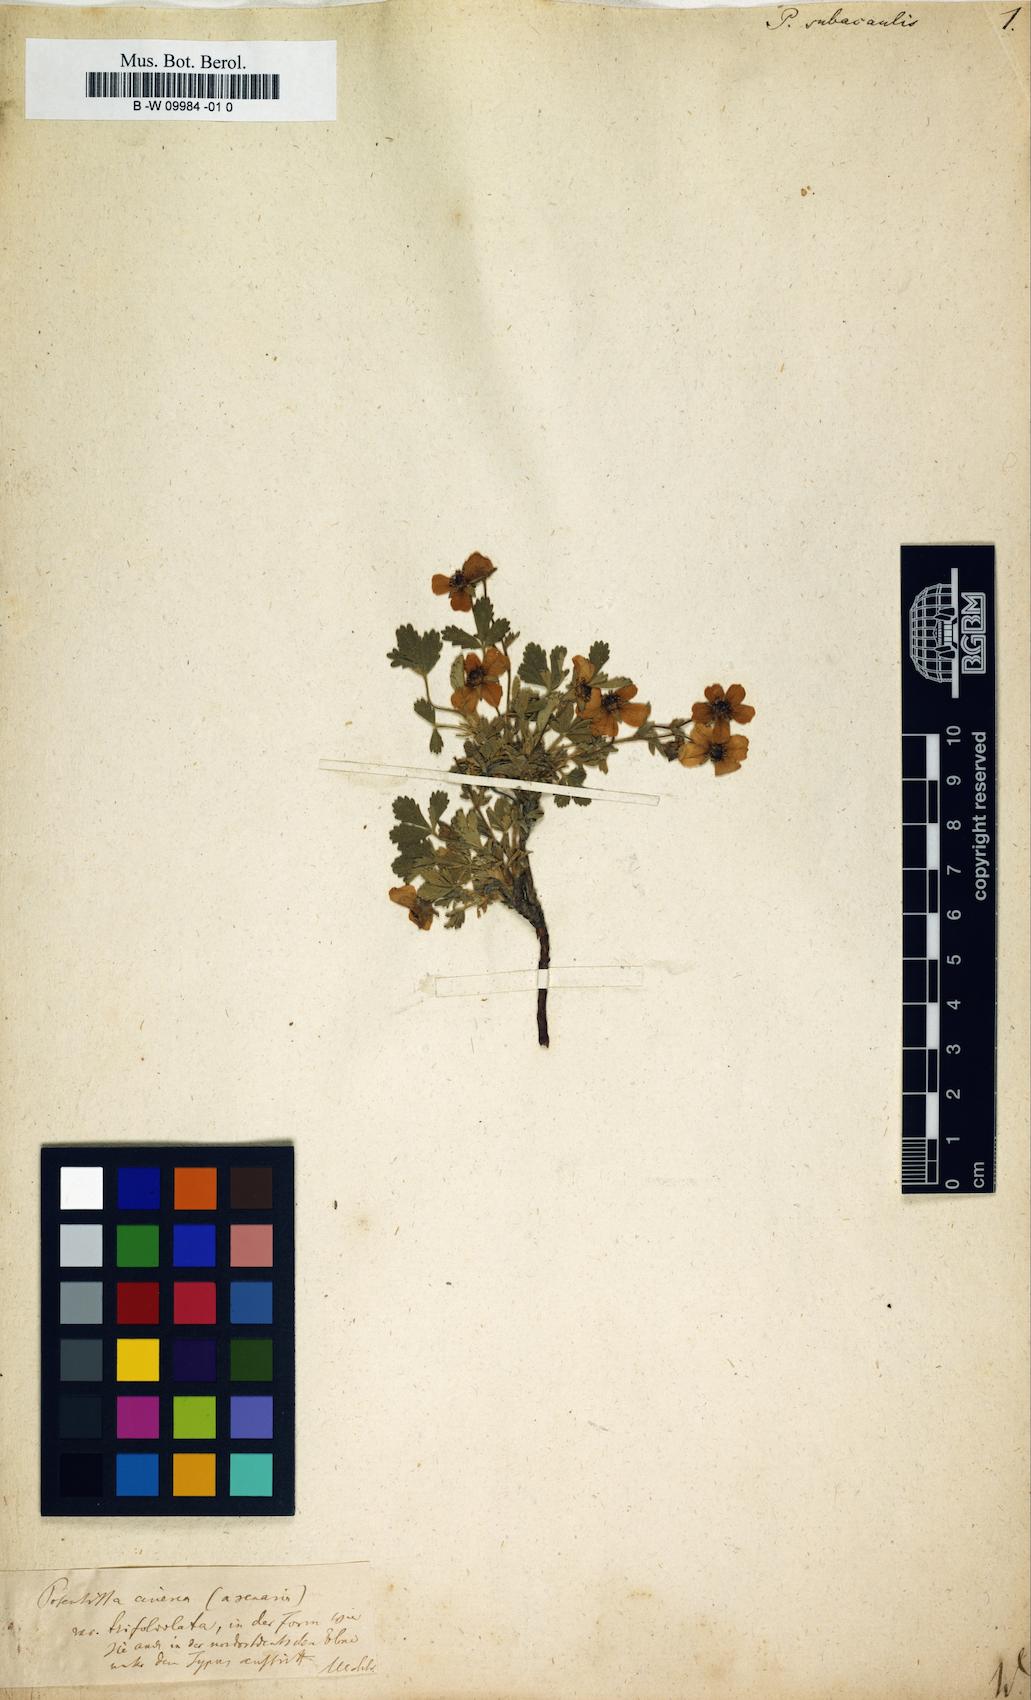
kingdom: Plantae
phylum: Tracheophyta
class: Magnoliopsida
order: Rosales
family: Rosaceae
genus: Potentilla
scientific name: Potentilla cinerea
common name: Ashy cinquefoil
